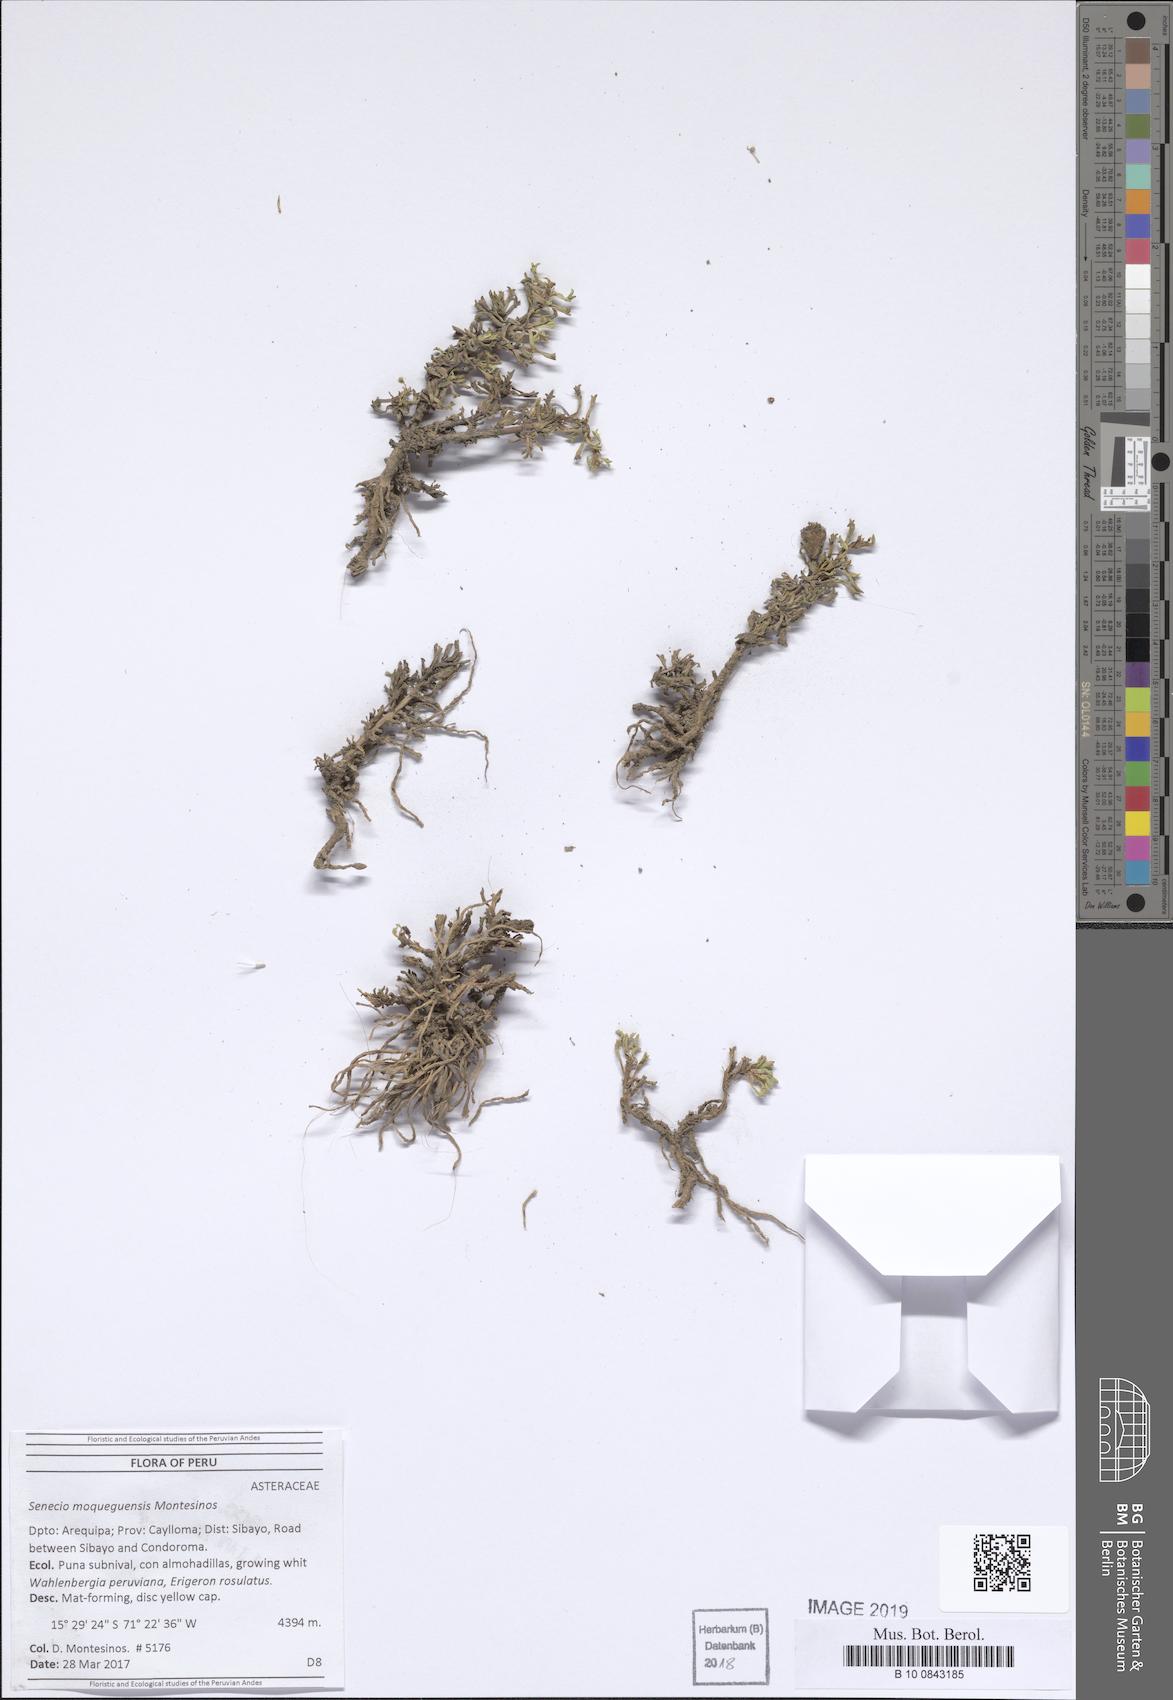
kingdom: Plantae
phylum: Tracheophyta
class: Magnoliopsida
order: Asterales
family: Asteraceae
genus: Senecio
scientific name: Senecio moqueguensis
